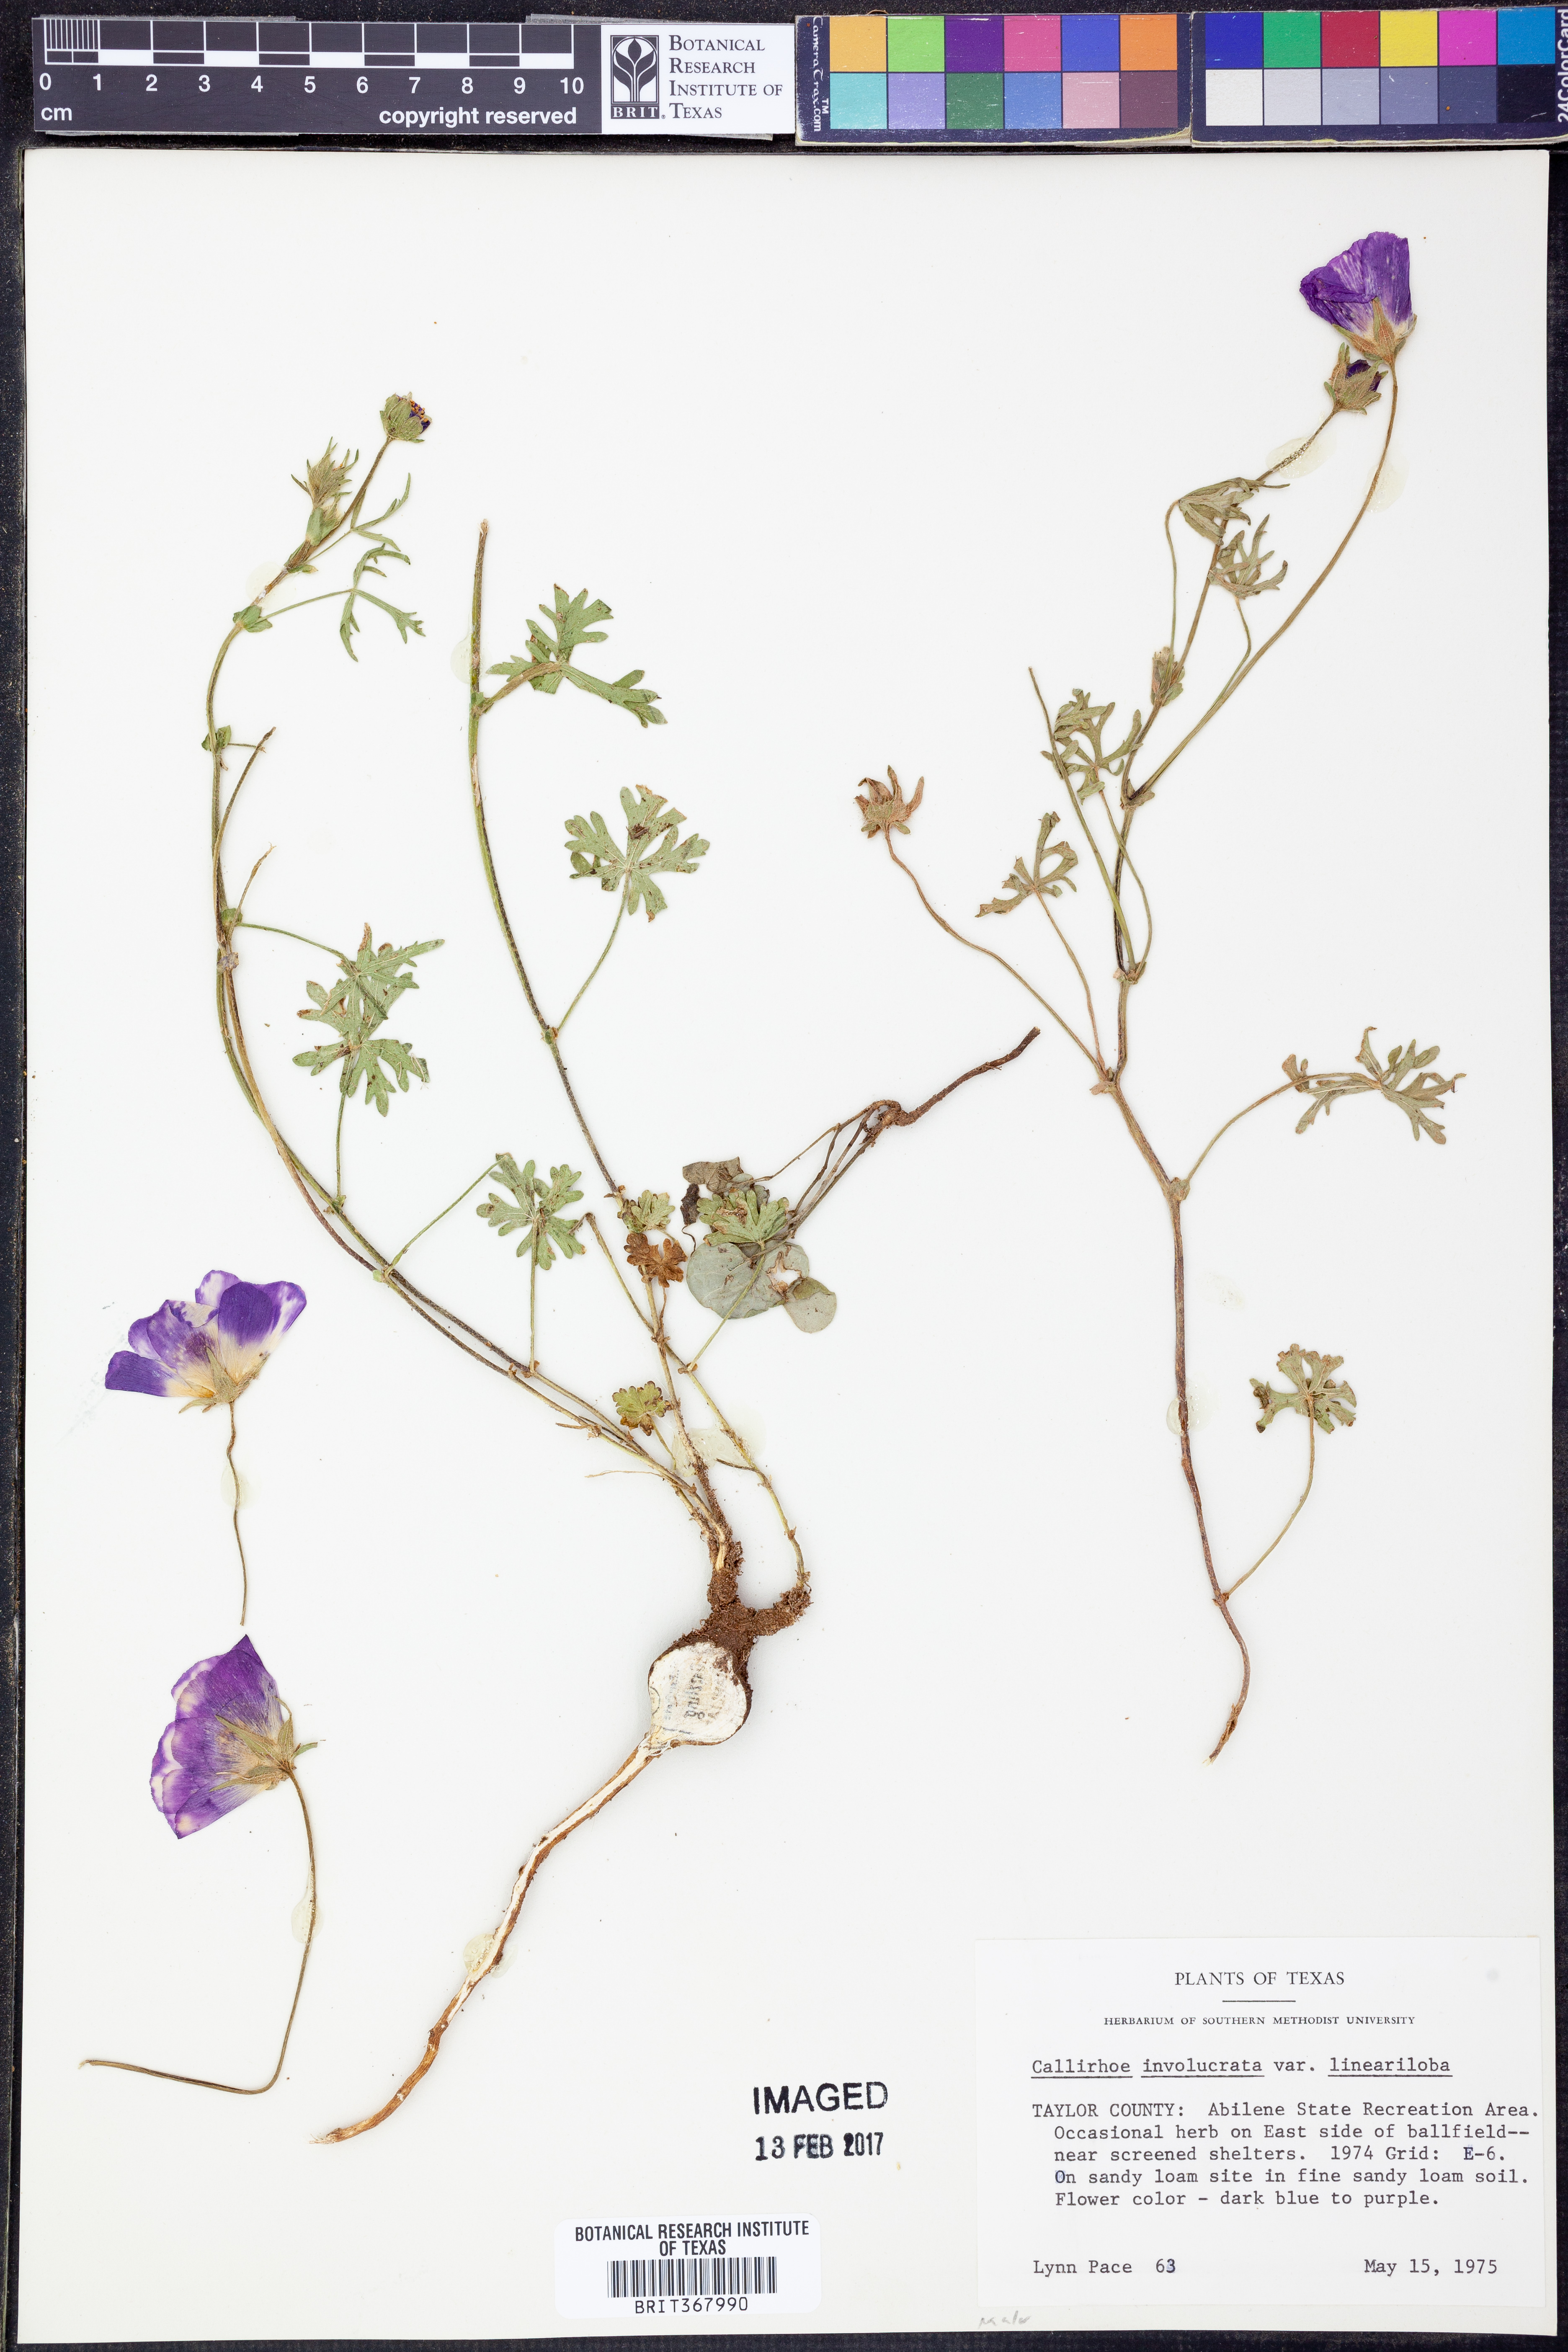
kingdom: Plantae
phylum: Tracheophyta
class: Magnoliopsida
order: Malvales
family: Malvaceae
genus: Callirhoe
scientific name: Callirhoe involucrata
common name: Purple poppy-mallow
